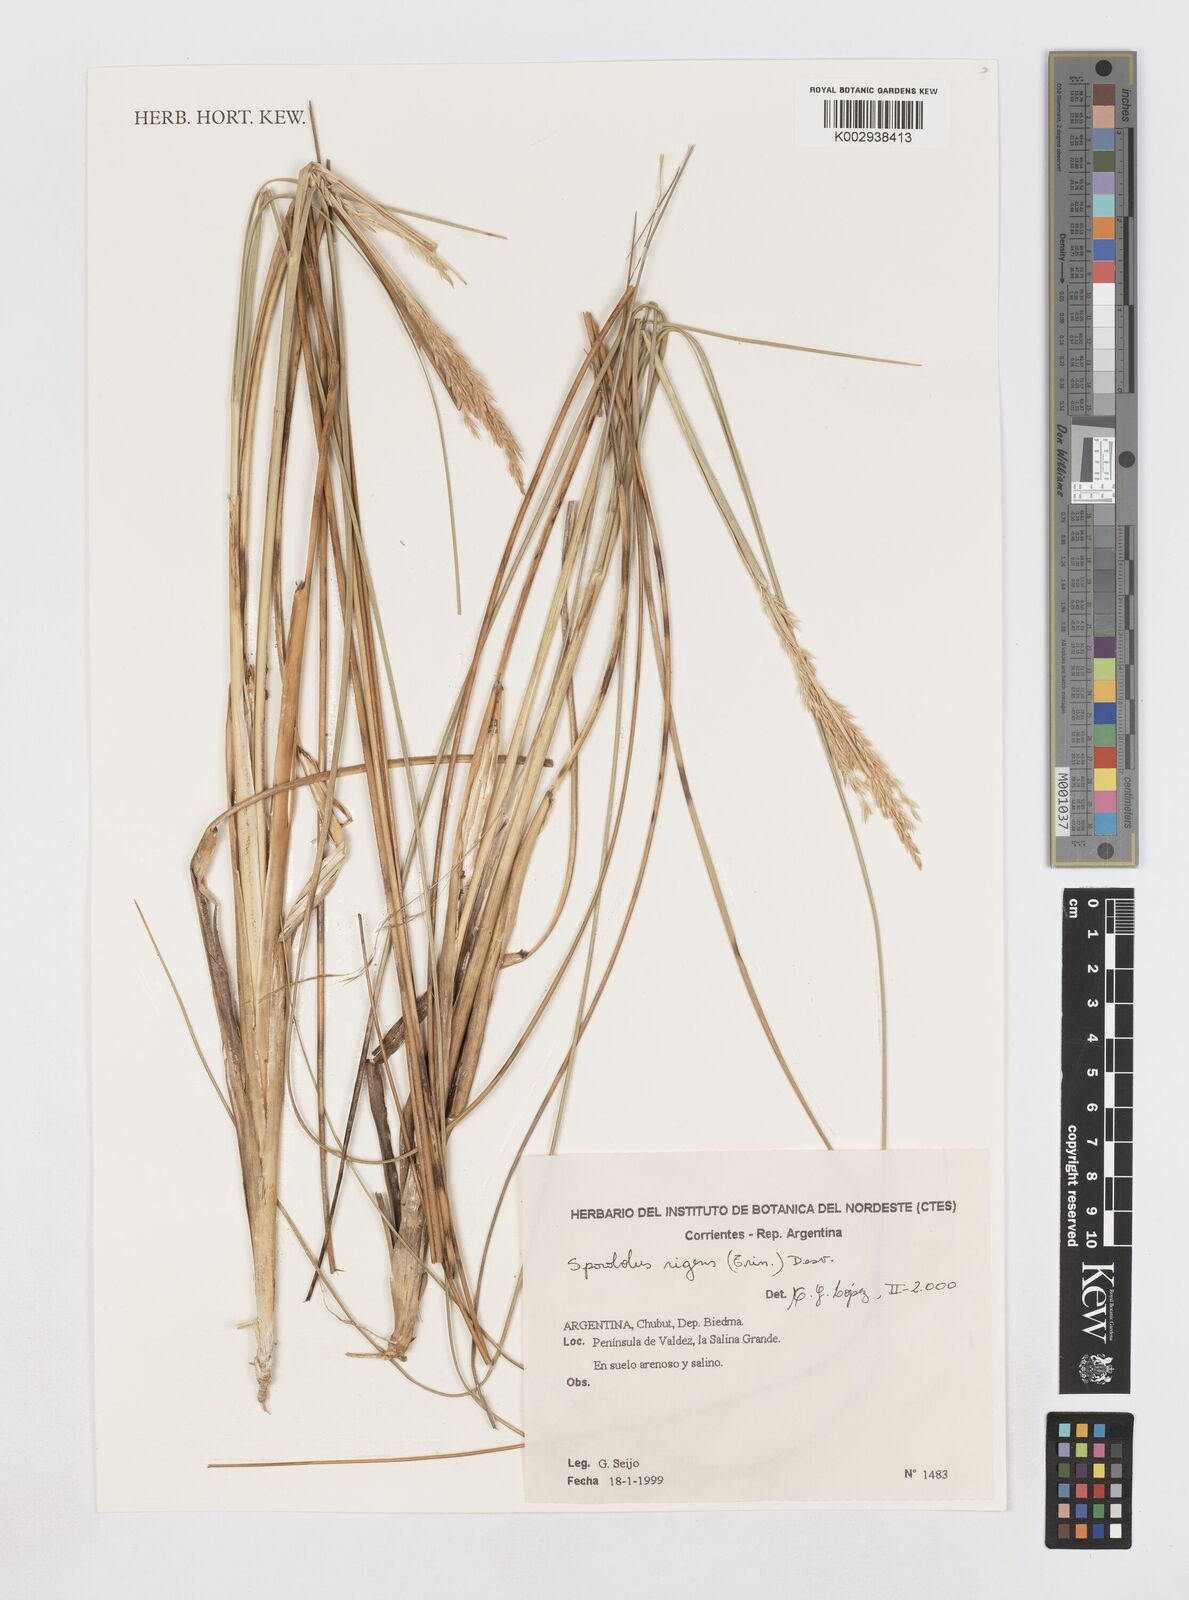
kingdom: Plantae
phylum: Tracheophyta
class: Liliopsida
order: Poales
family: Poaceae
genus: Sporobolus
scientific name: Sporobolus rigens
